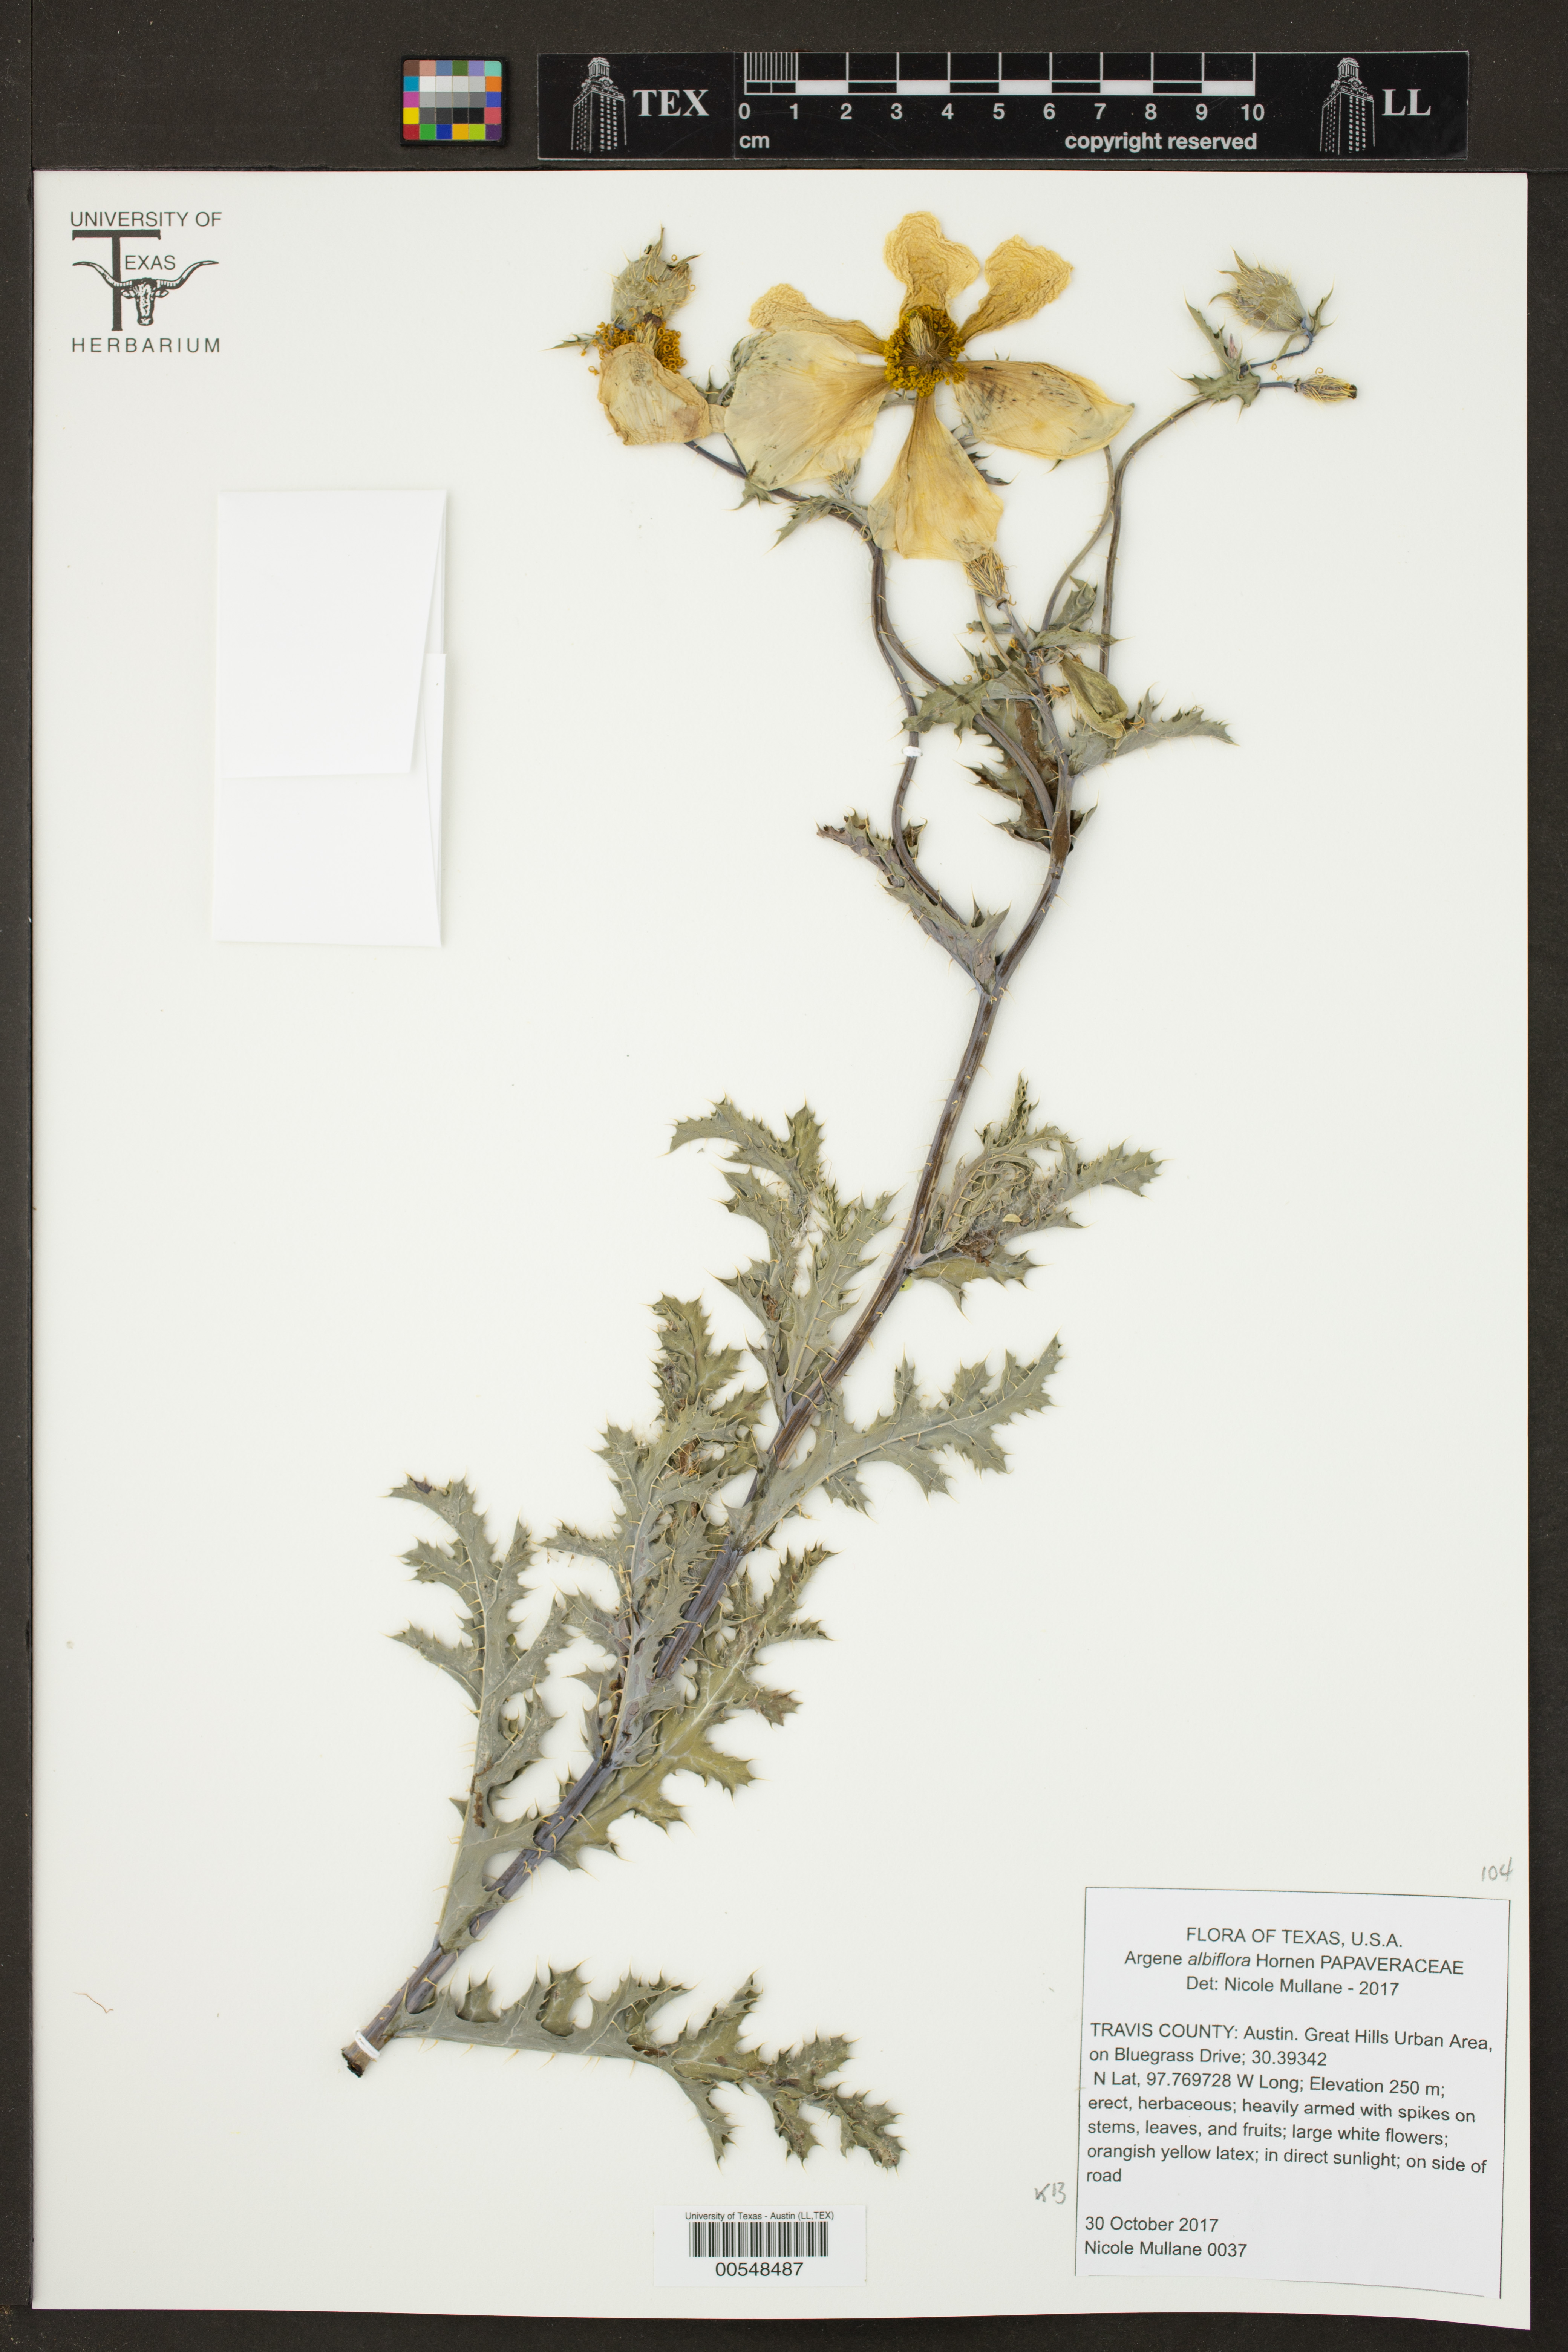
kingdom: Plantae
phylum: Tracheophyta
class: Magnoliopsida
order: Ranunculales
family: Papaveraceae
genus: Argemone
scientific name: Argemone albiflora
